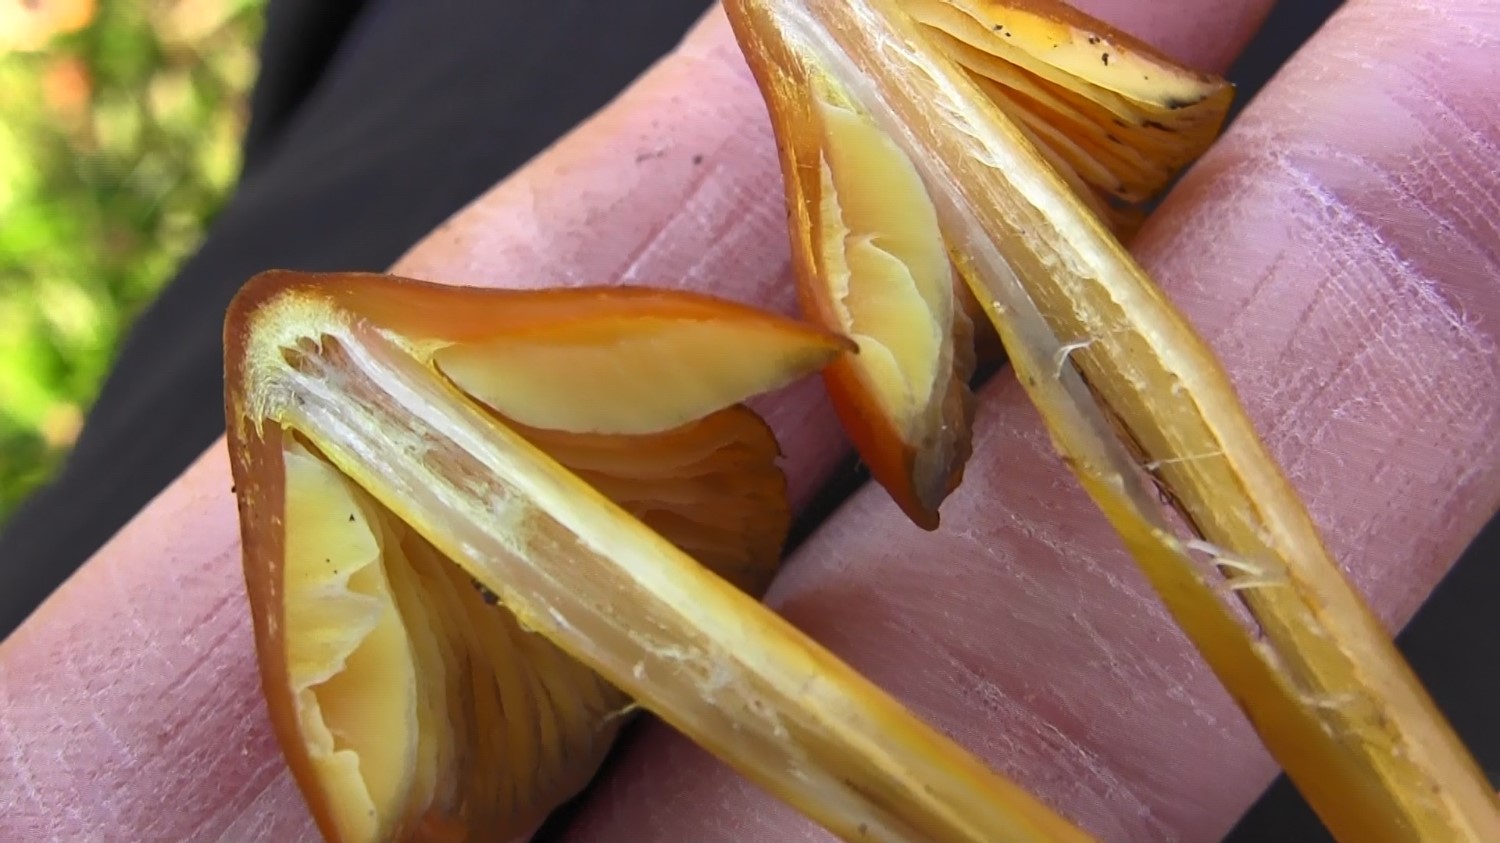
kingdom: Fungi
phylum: Basidiomycota
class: Agaricomycetes
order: Agaricales
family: Hygrophoraceae
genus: Hygrocybe
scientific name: Hygrocybe conica
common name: kegle-vokshat
